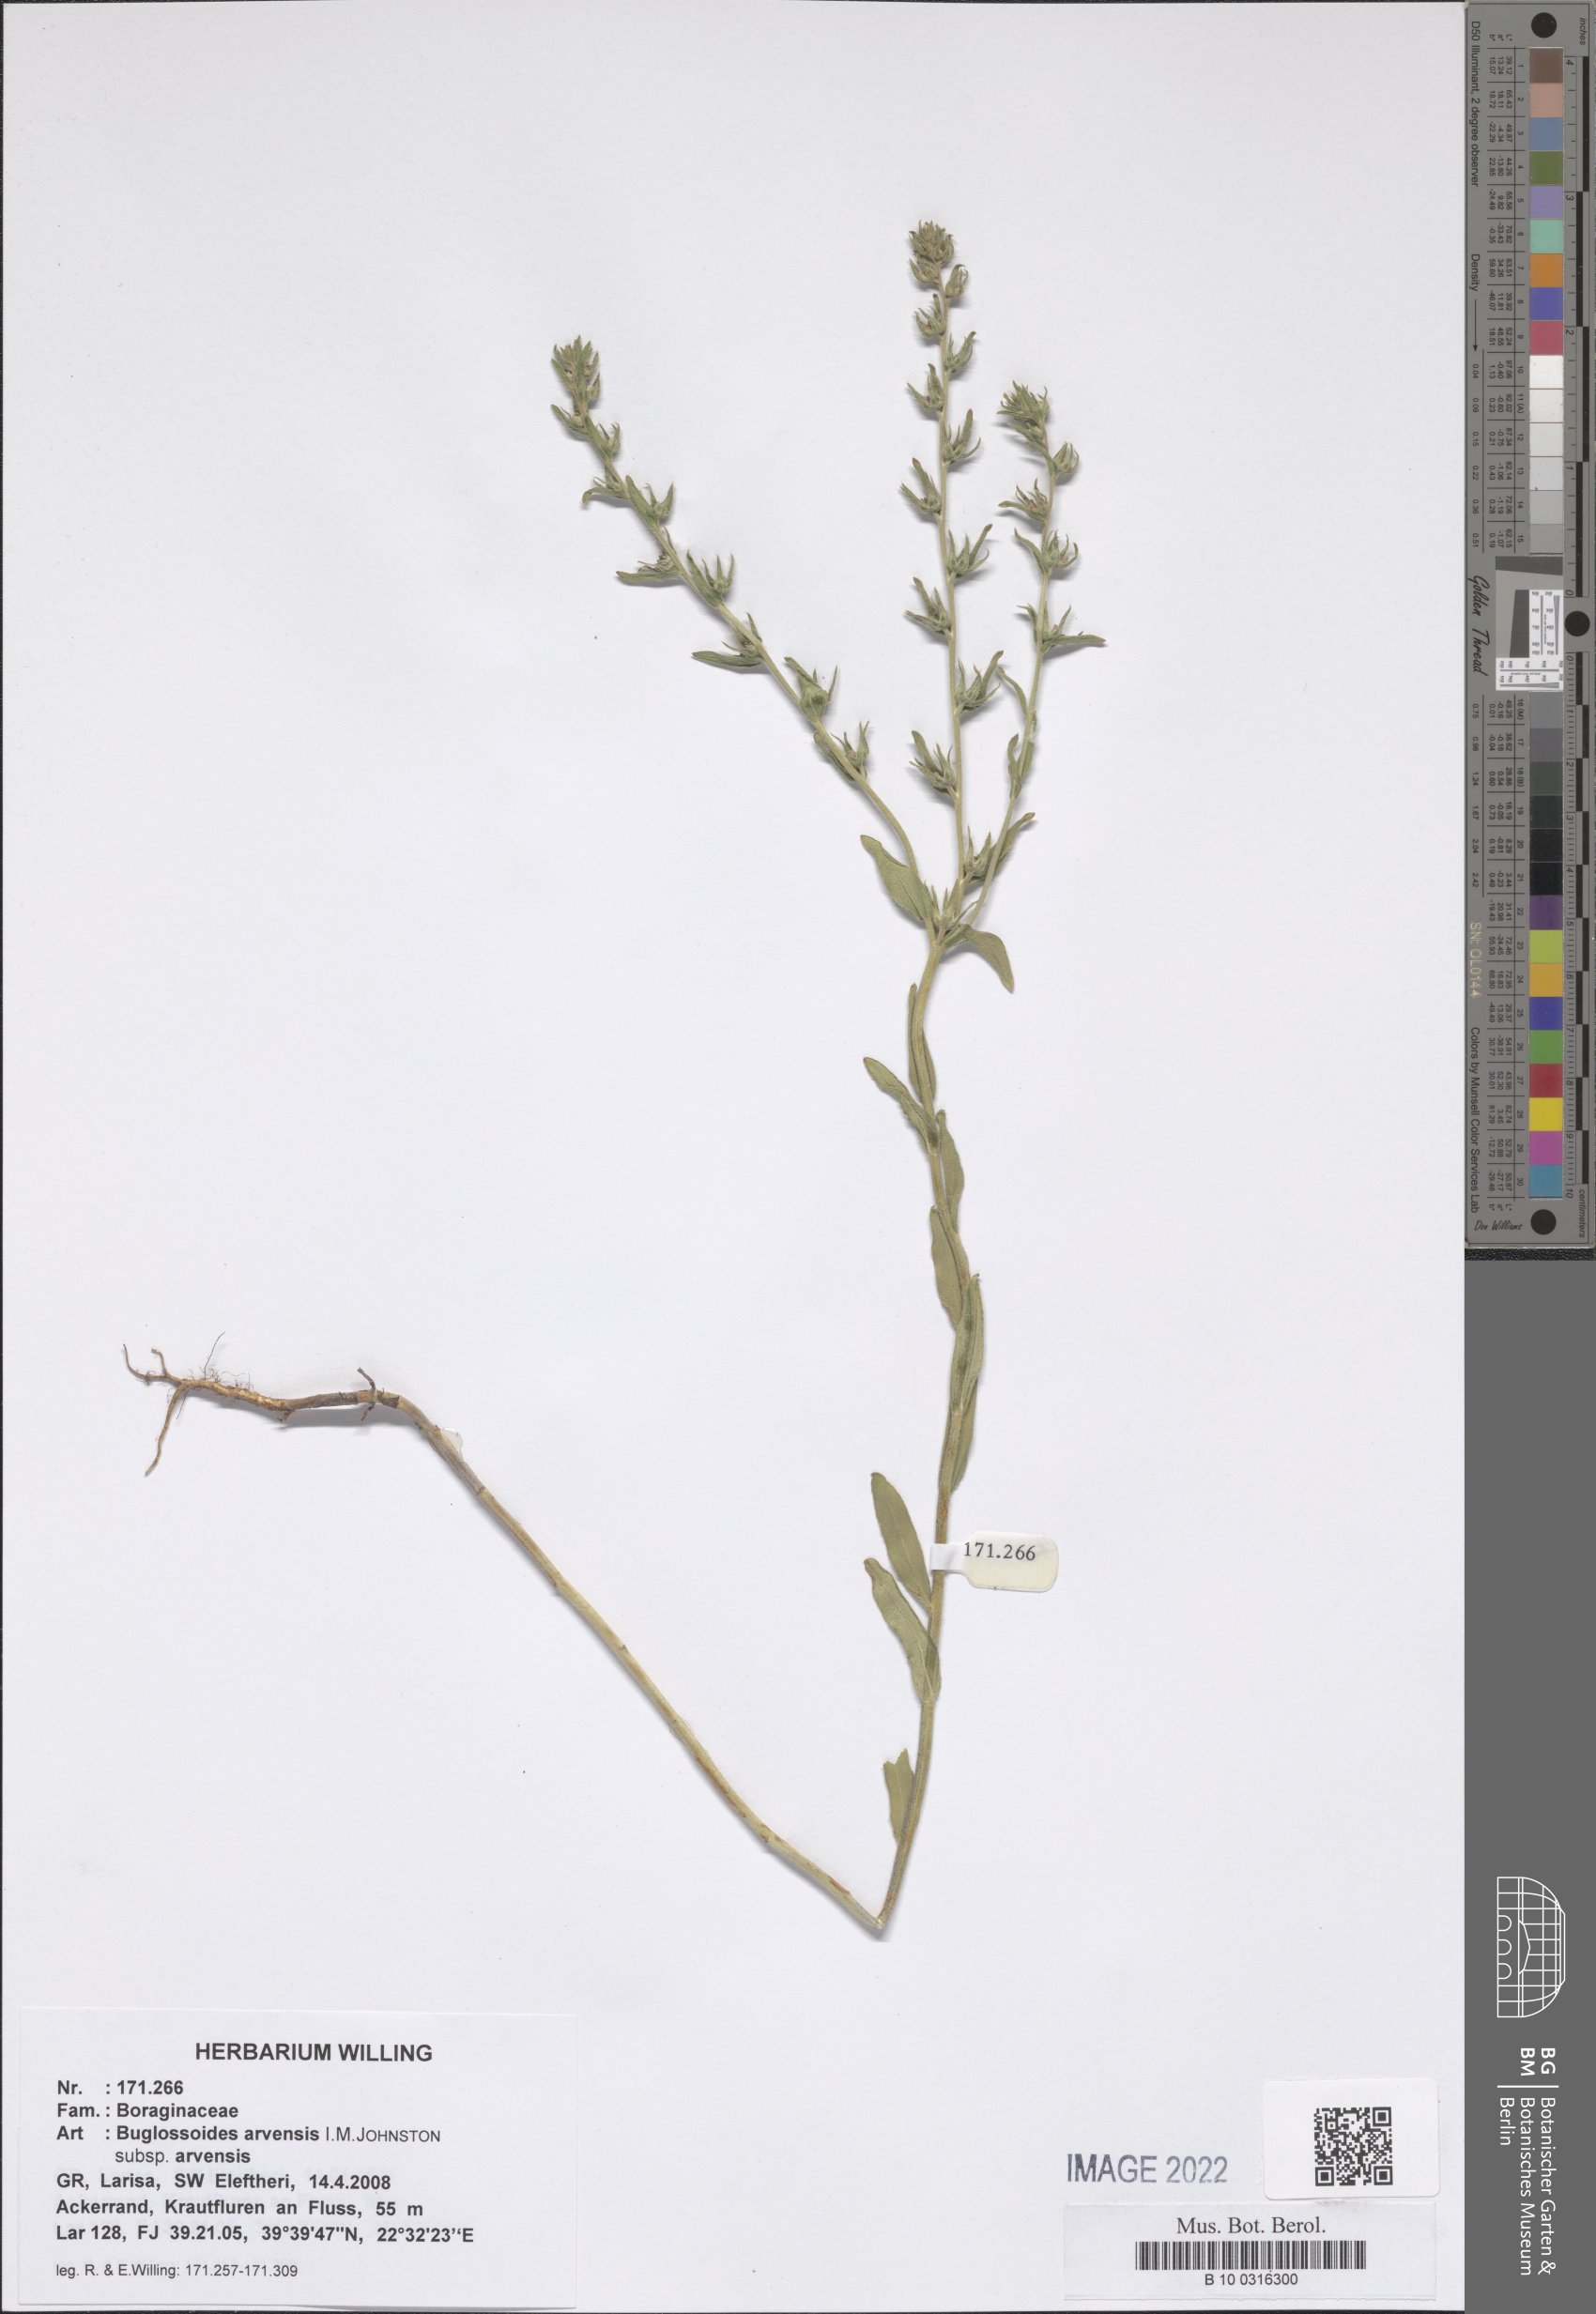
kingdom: Plantae
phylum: Tracheophyta
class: Magnoliopsida
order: Boraginales
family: Boraginaceae
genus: Buglossoides
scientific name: Buglossoides arvensis
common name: Corn gromwell
